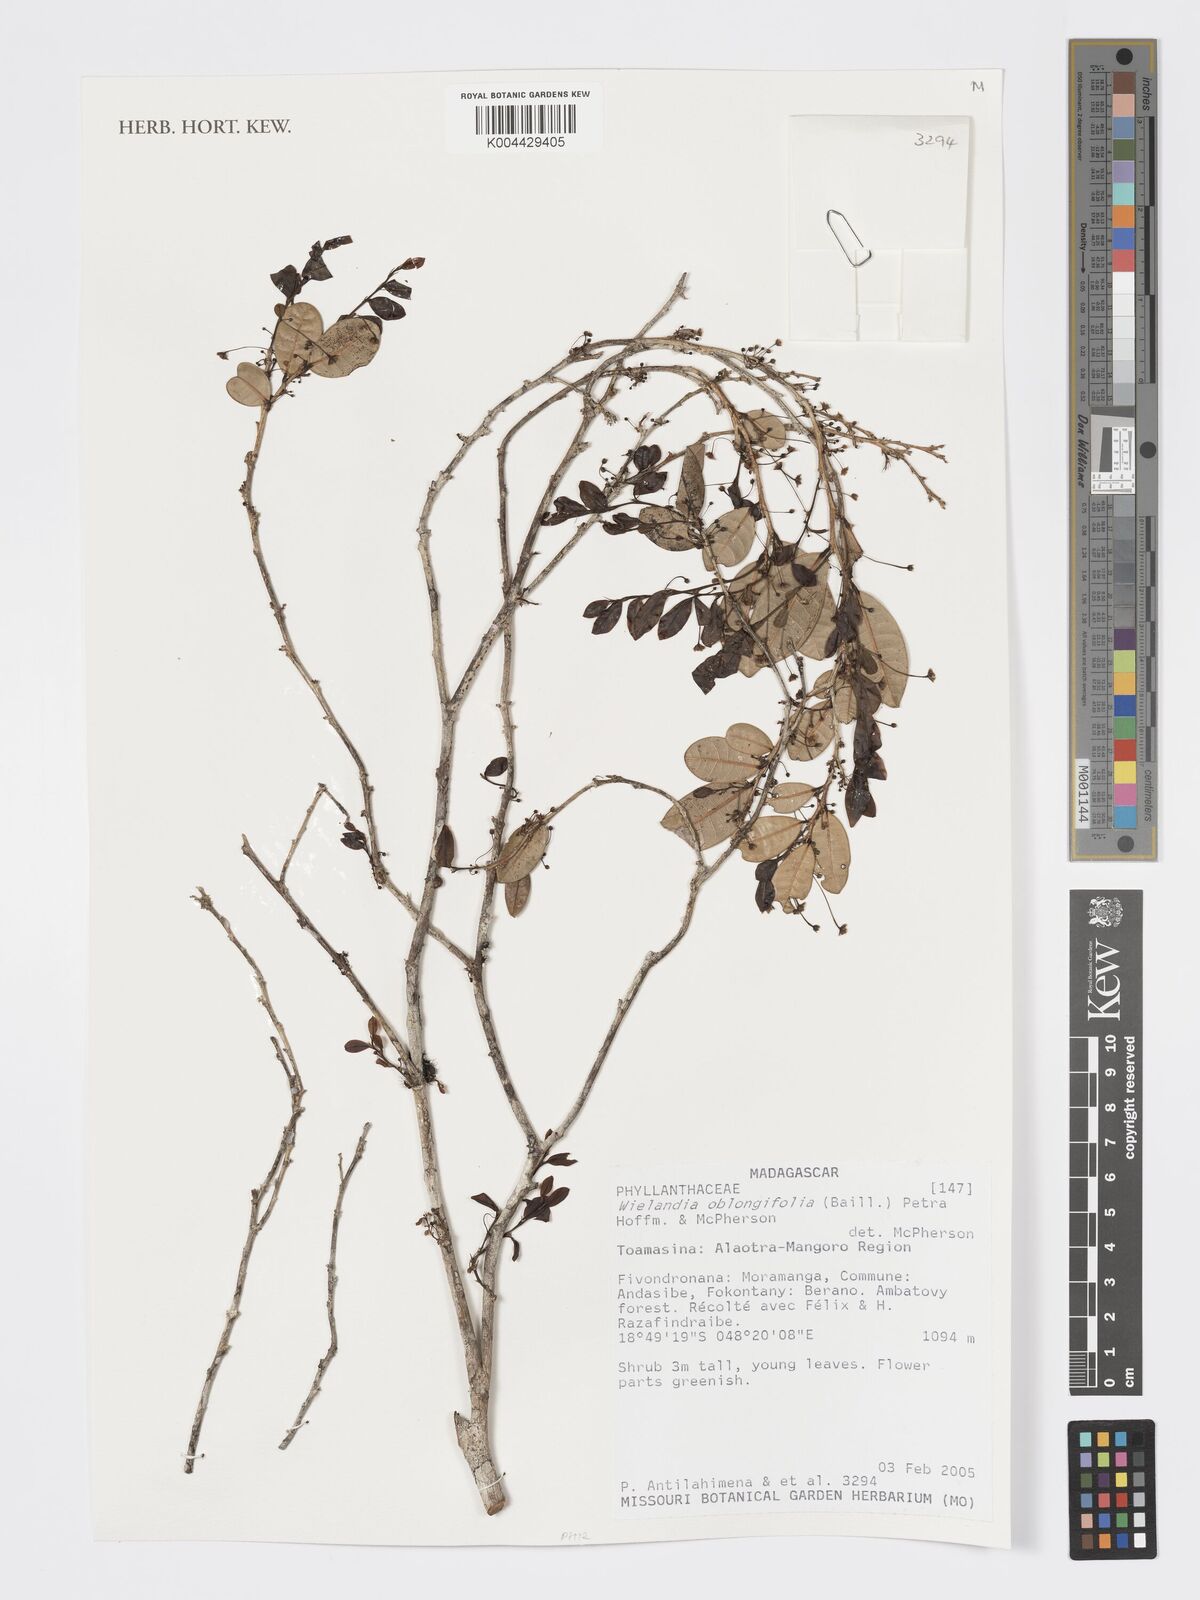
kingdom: Plantae
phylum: Tracheophyta
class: Magnoliopsida
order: Malpighiales
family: Phyllanthaceae
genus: Wielandia
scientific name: Wielandia oblongifolia
